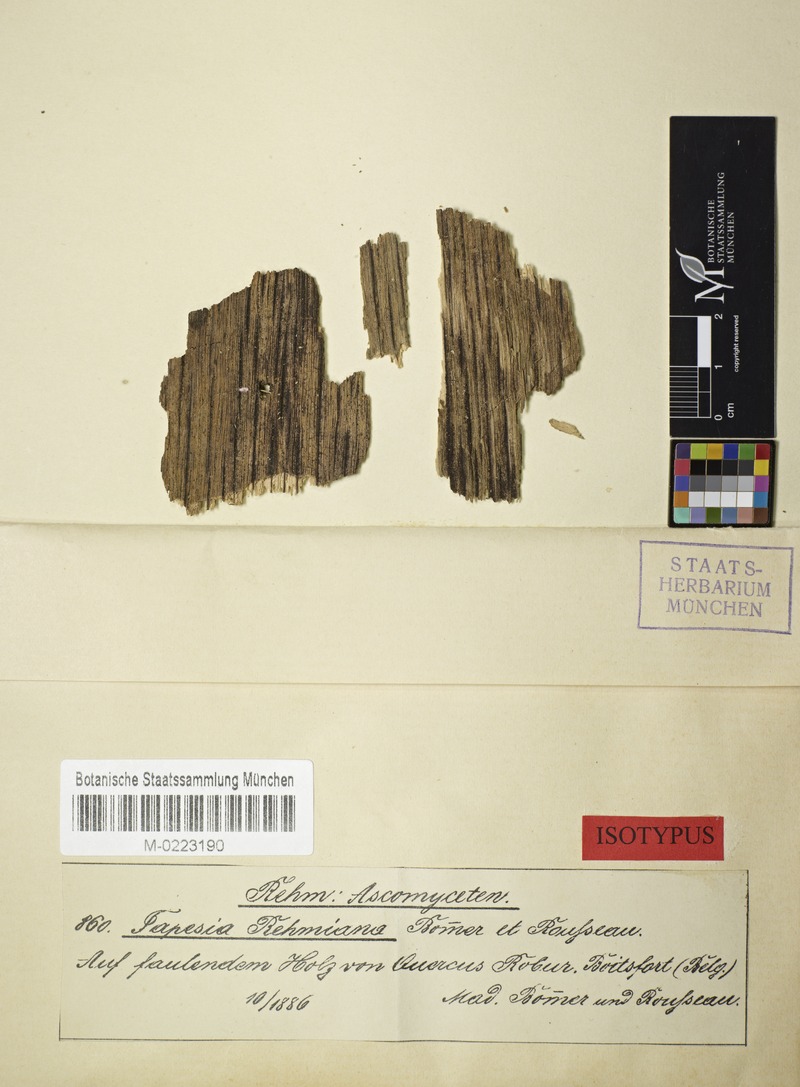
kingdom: Fungi
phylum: Ascomycota
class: Leotiomycetes
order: Helotiales
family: Hyaloscyphaceae
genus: Urceolella
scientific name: Urceolella rehmiana
